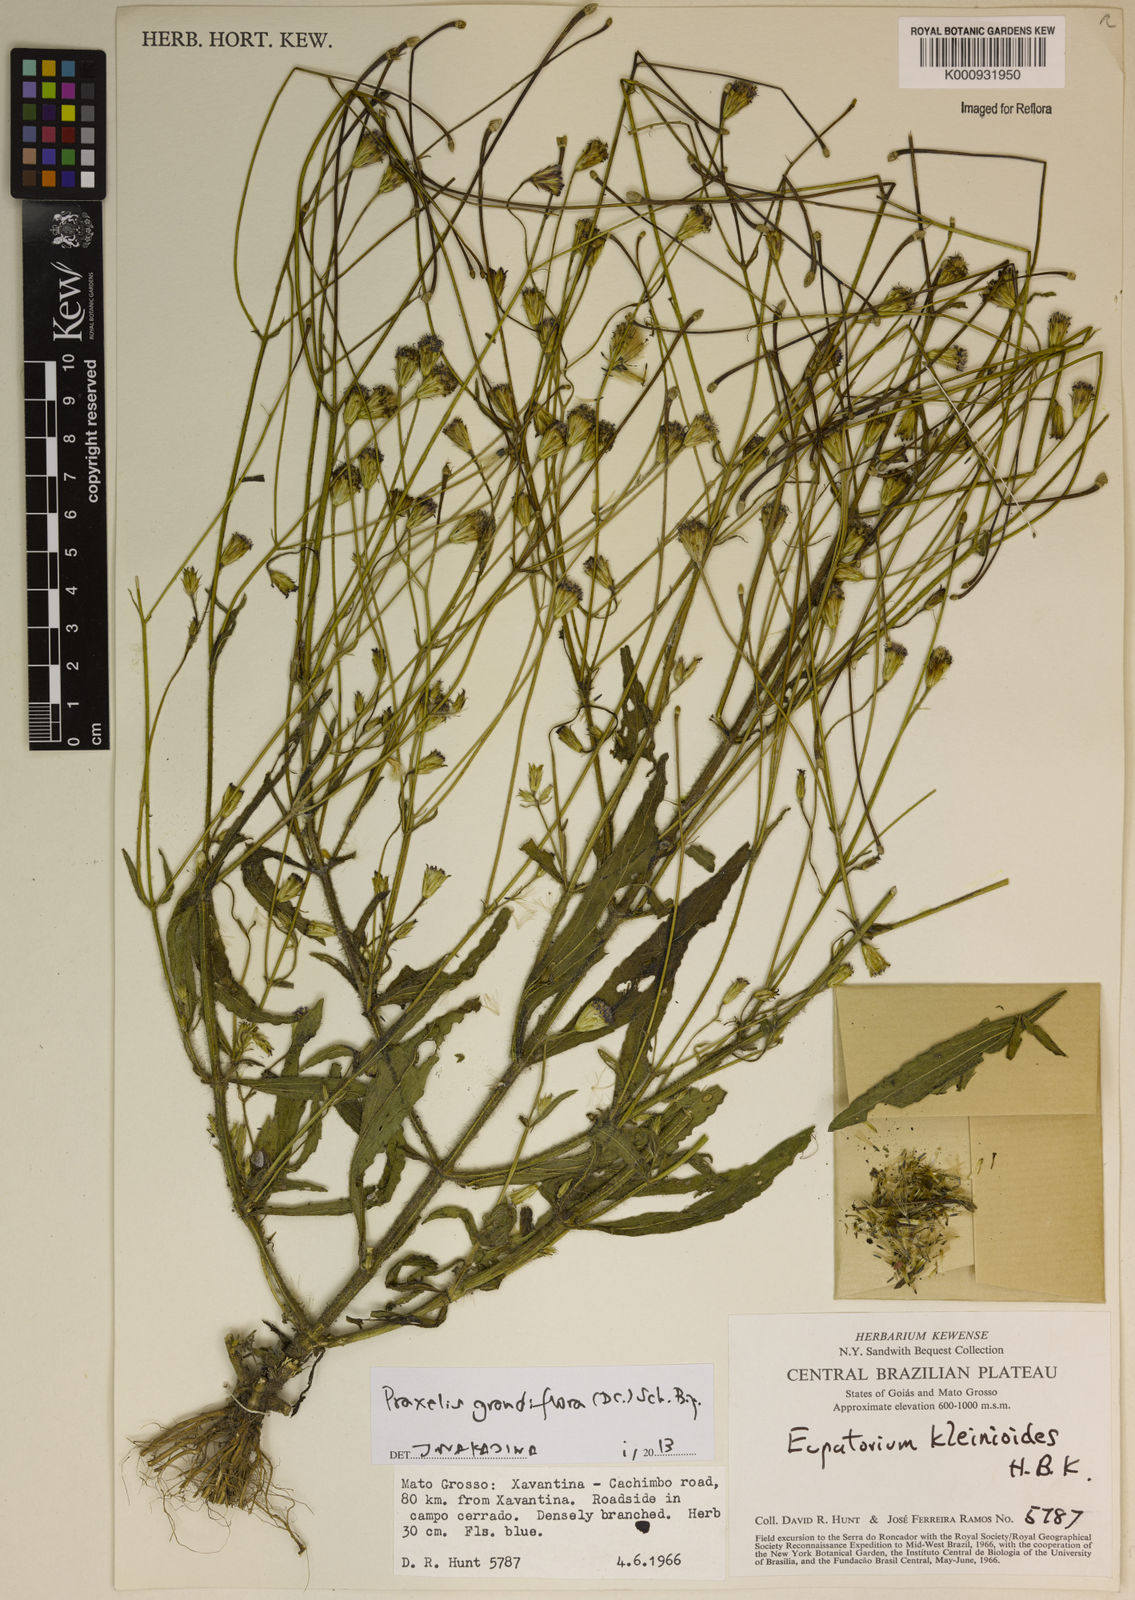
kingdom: Plantae
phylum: Tracheophyta
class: Magnoliopsida
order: Asterales
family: Asteraceae
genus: Praxelis
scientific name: Praxelis grandiflora
